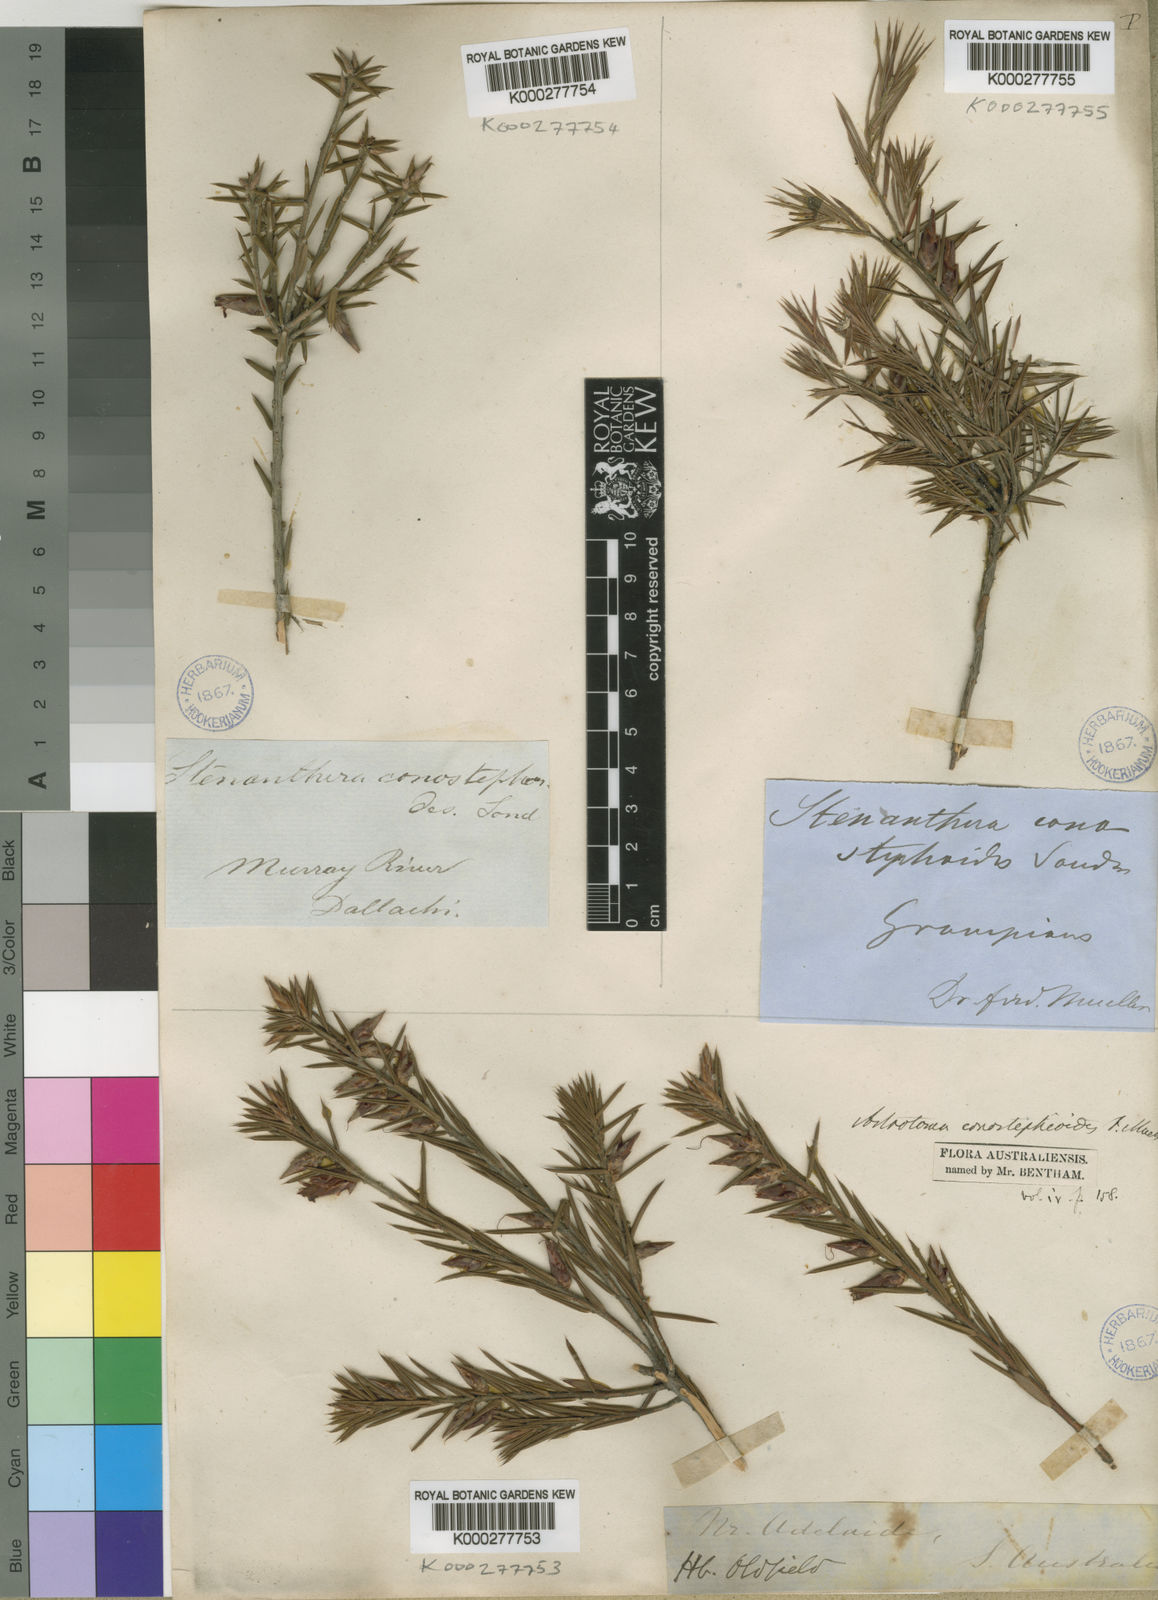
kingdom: Plantae
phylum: Tracheophyta
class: Magnoliopsida
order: Ericales
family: Ericaceae
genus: Stenanthera
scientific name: Stenanthera conostephioides
